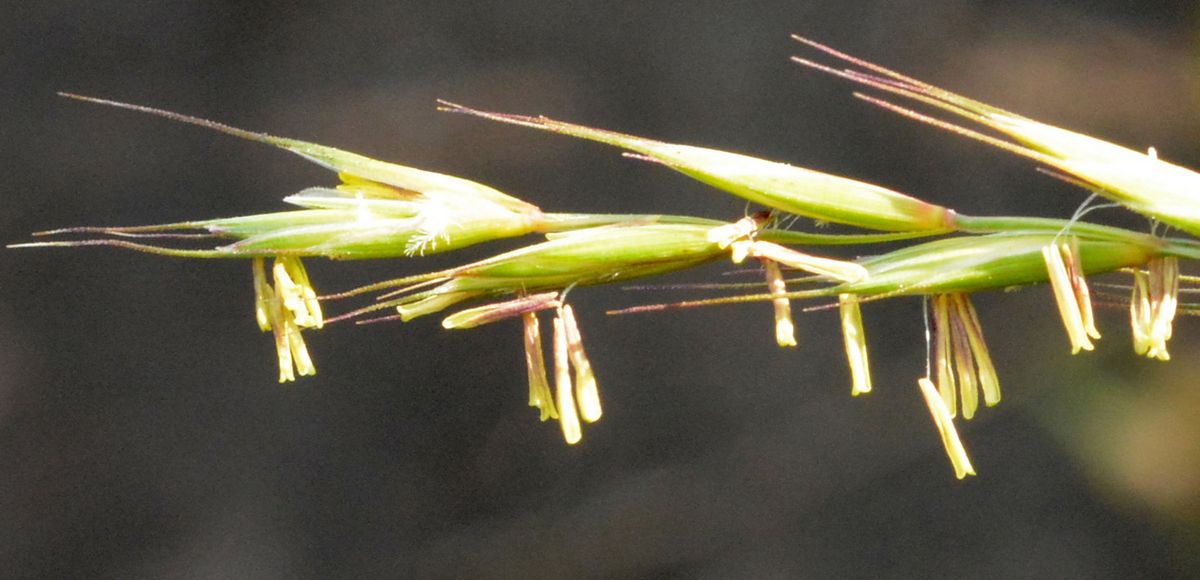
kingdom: Plantae
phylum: Tracheophyta
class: Liliopsida
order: Poales
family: Poaceae
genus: Elymus
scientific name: Elymus repens
